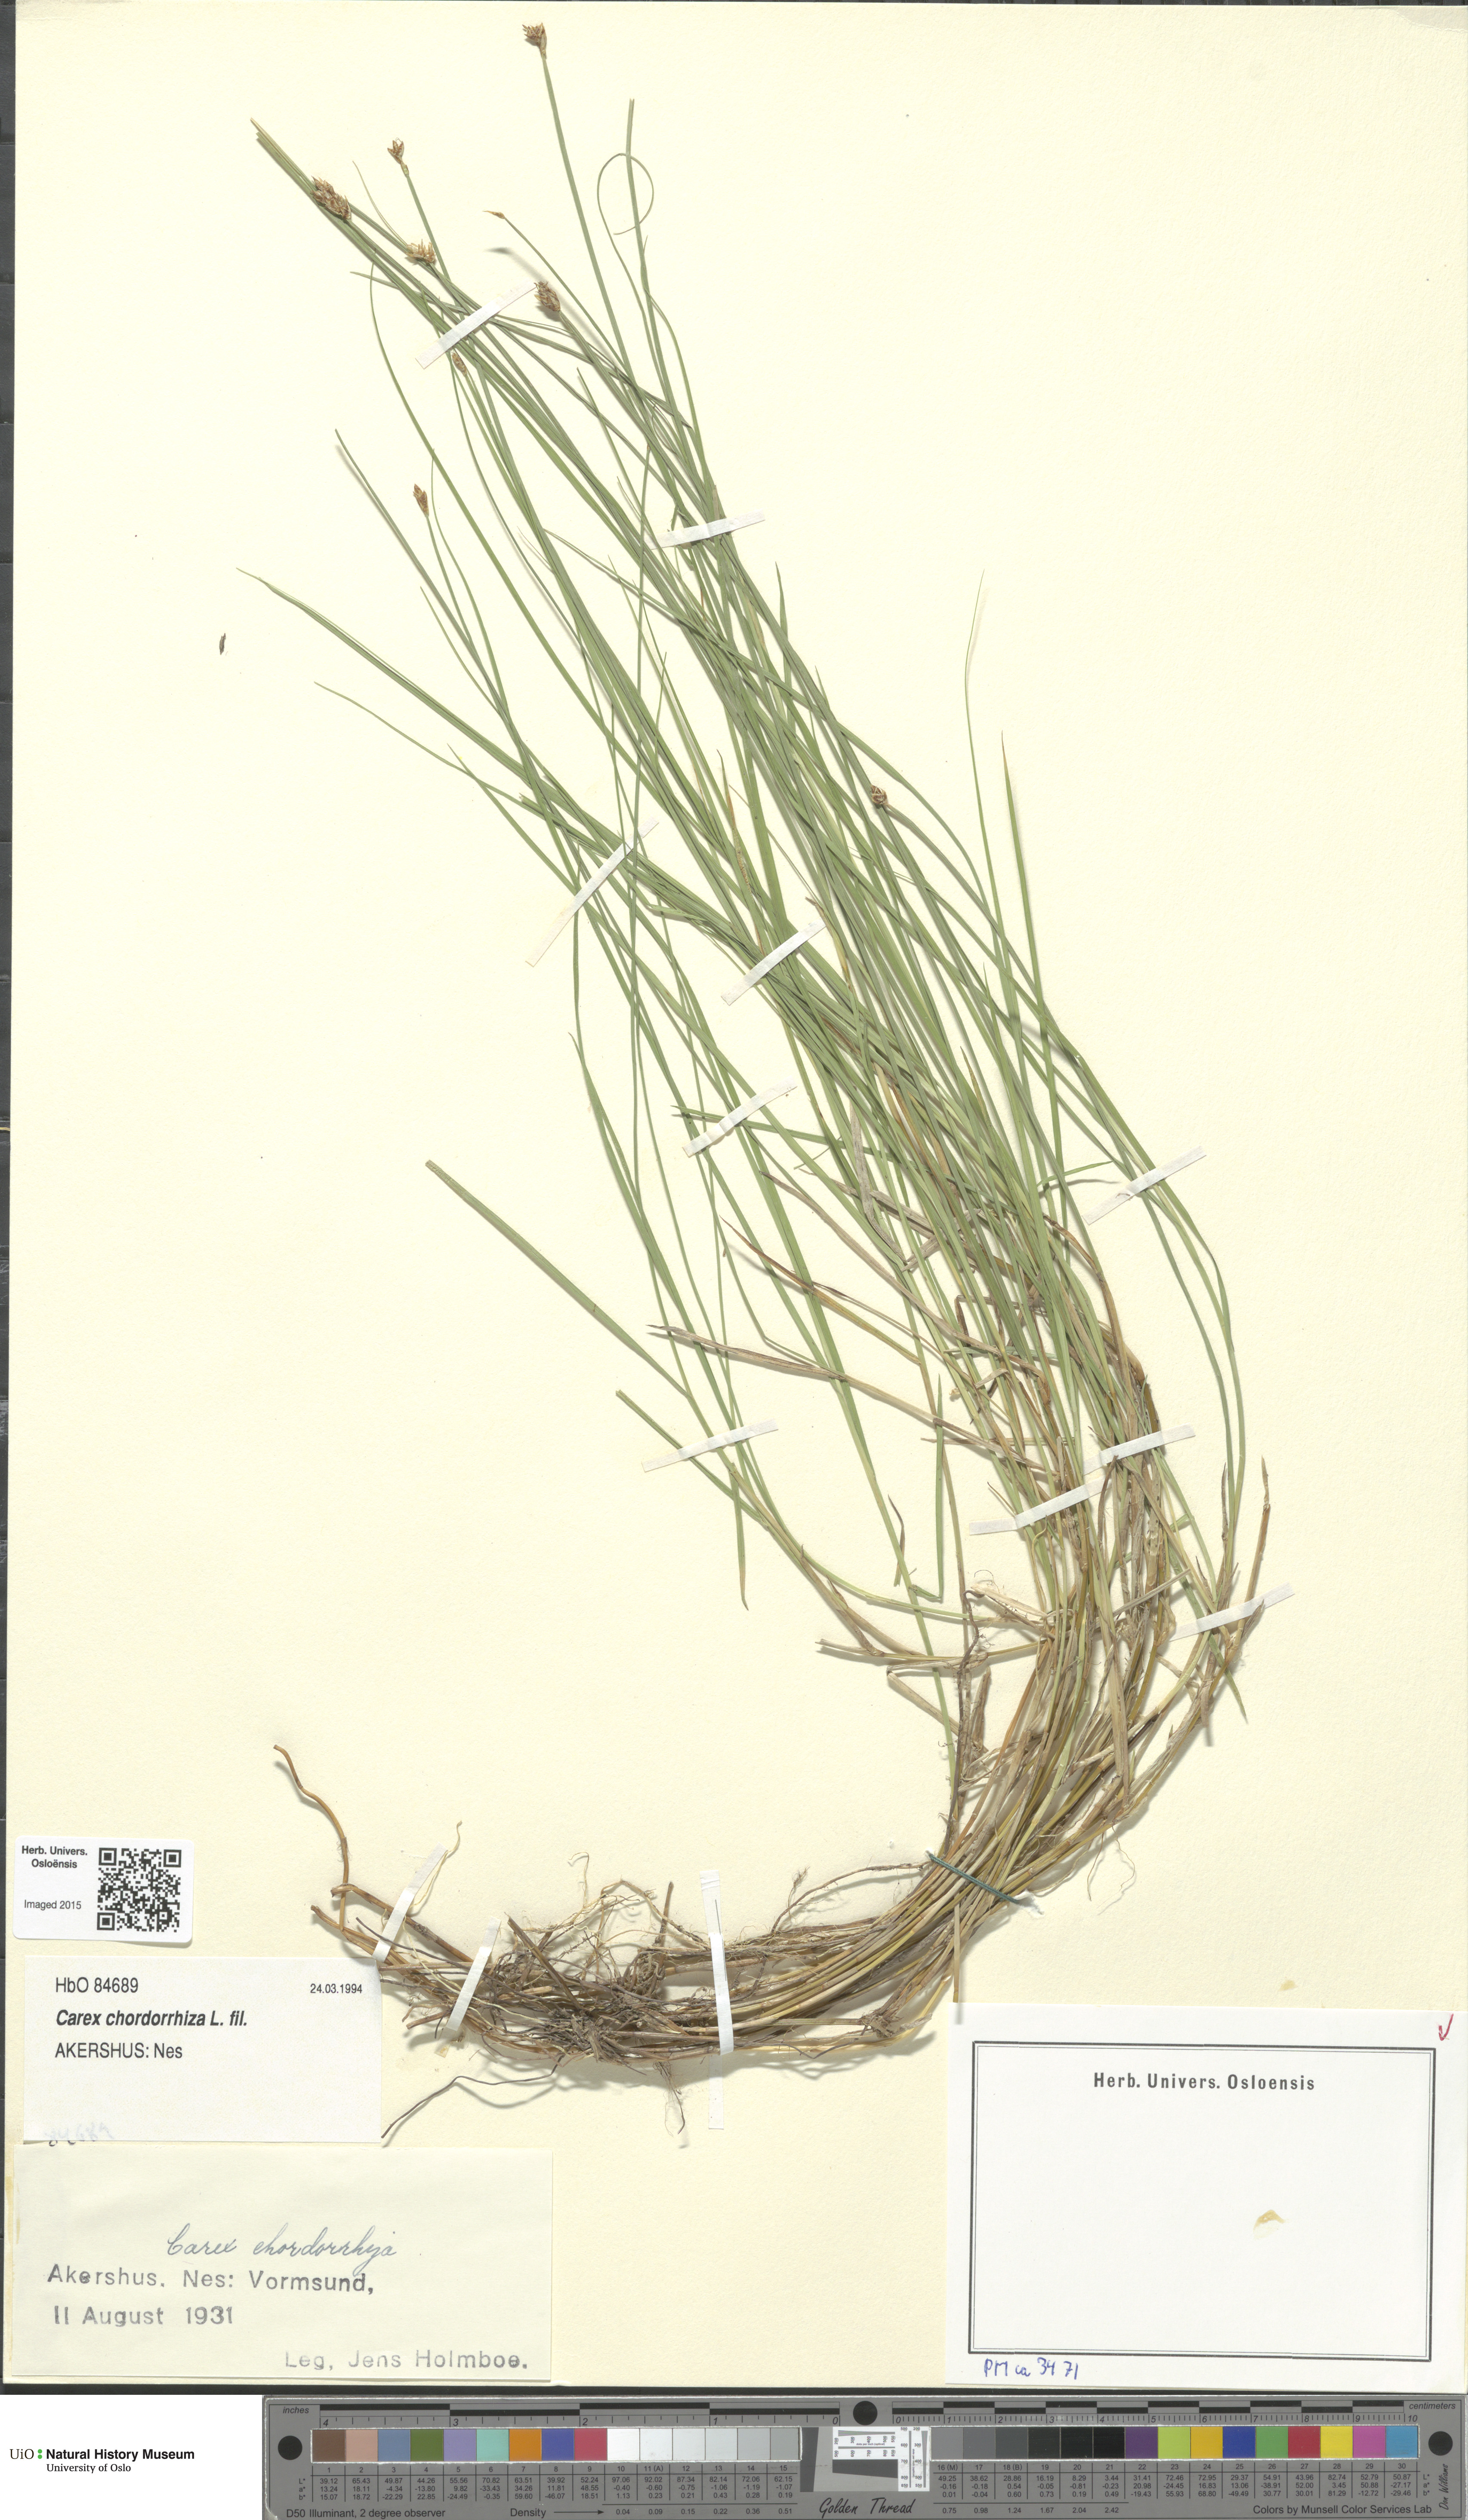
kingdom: Plantae
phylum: Tracheophyta
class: Liliopsida
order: Poales
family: Cyperaceae
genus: Carex
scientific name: Carex chordorrhiza
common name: String sedge
